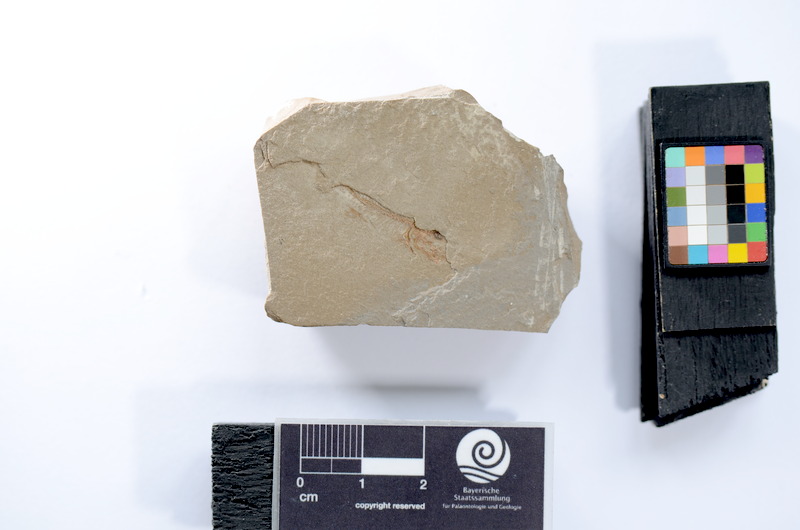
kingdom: Animalia
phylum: Chordata
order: Elopiformes
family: Anaethalionidae
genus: Anaethalion
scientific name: Anaethalion
